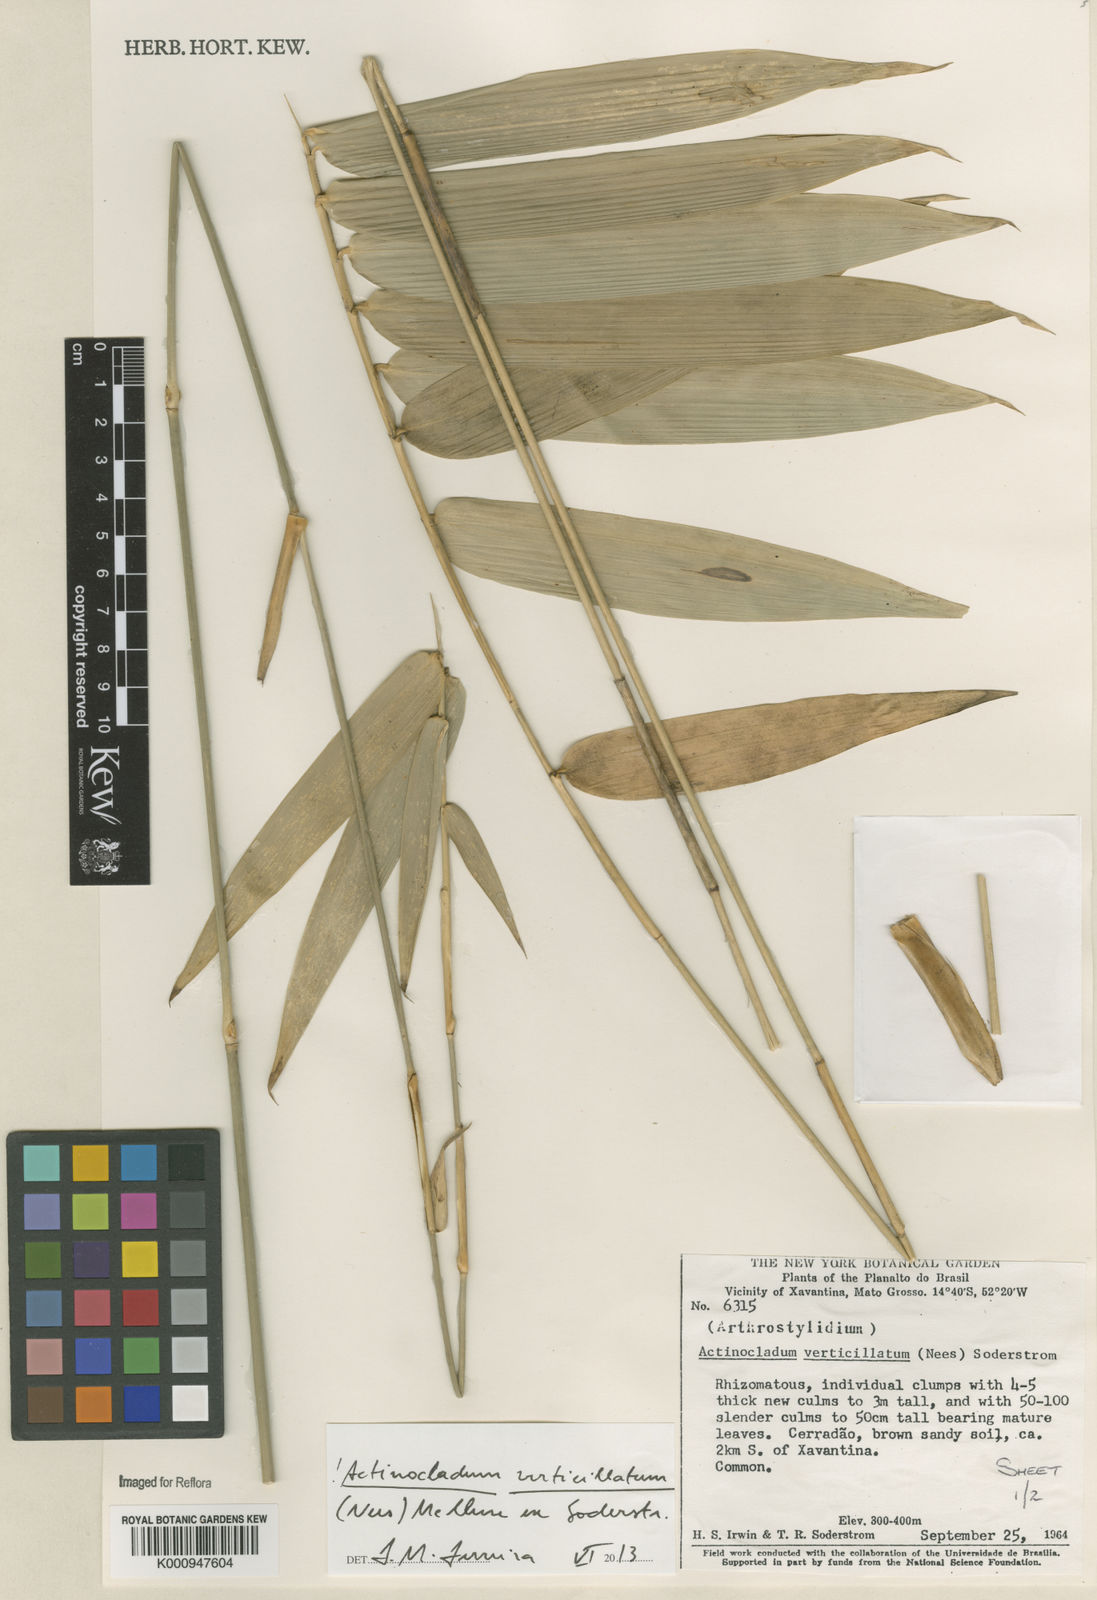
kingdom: Plantae
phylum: Tracheophyta
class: Liliopsida
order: Poales
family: Poaceae
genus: Actinocladum
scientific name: Actinocladum verticillatum
